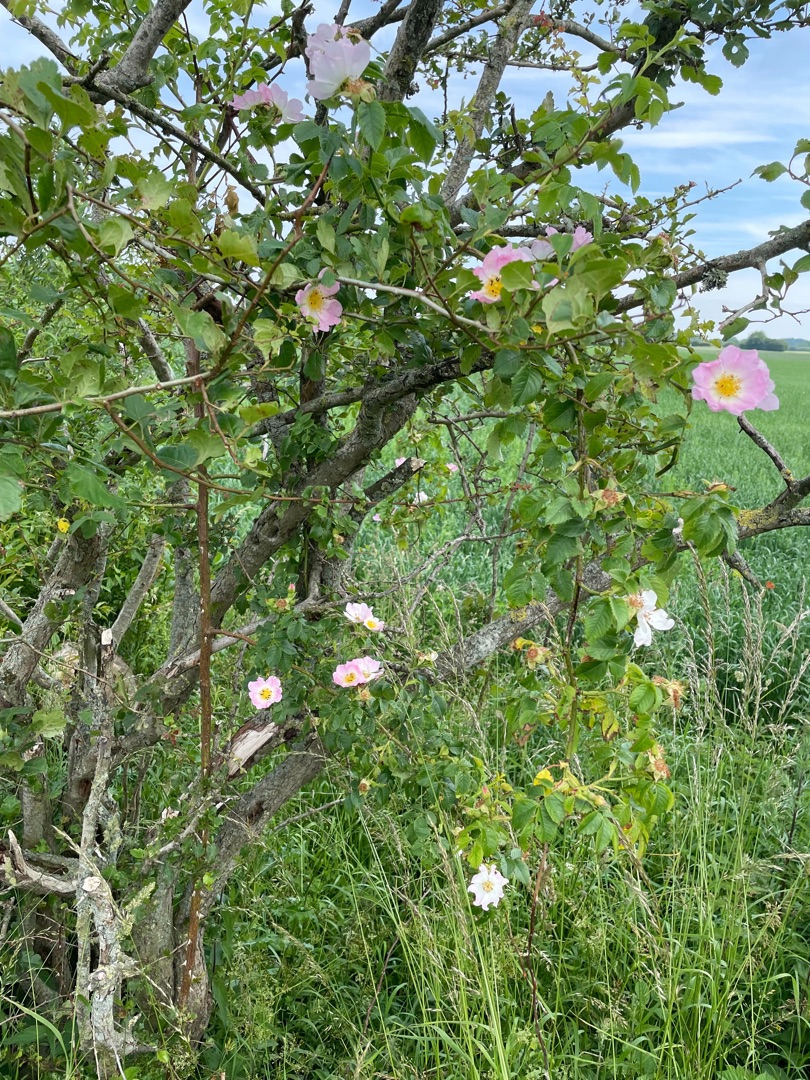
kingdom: Plantae
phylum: Tracheophyta
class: Magnoliopsida
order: Rosales
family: Rosaceae
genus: Rosa
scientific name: Rosa
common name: Roseslægten
